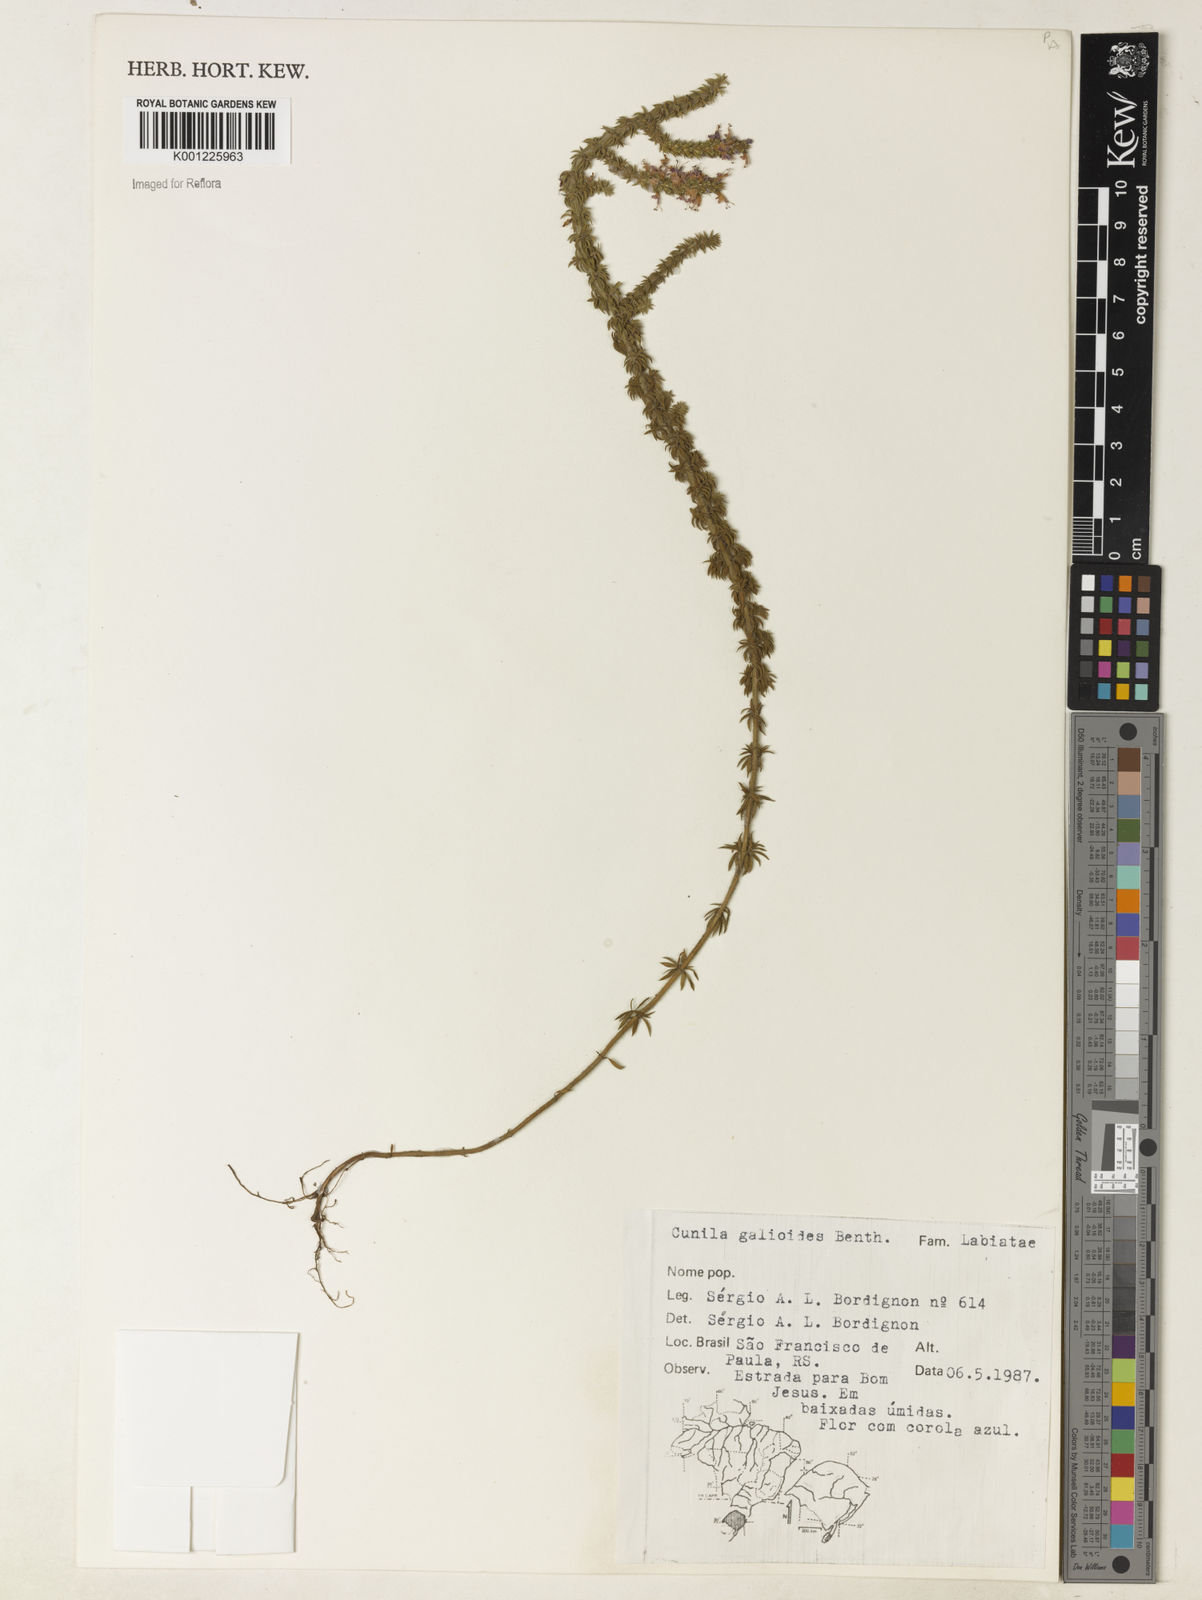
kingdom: Plantae
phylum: Tracheophyta
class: Magnoliopsida
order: Lamiales
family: Lamiaceae
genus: Cunila
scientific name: Cunila galioides
